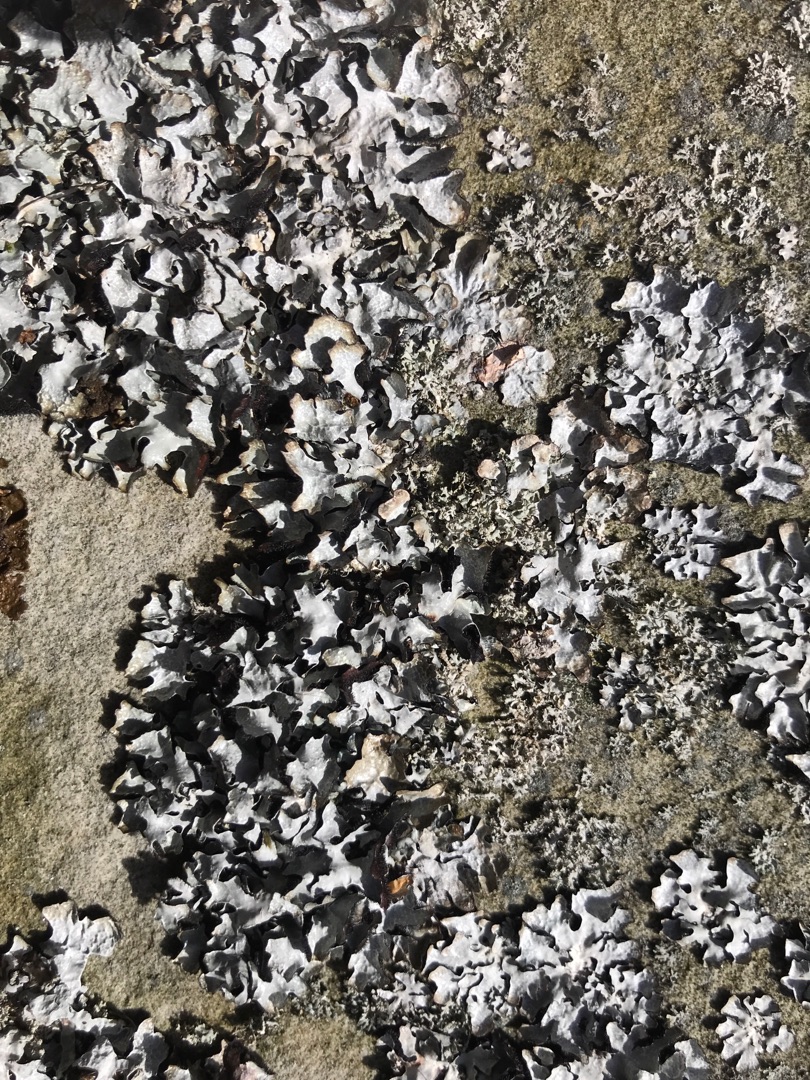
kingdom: Fungi
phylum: Ascomycota
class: Lecanoromycetes
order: Lecanorales
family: Parmeliaceae
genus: Parmelia
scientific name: Parmelia sulcata
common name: Rynket skållav
